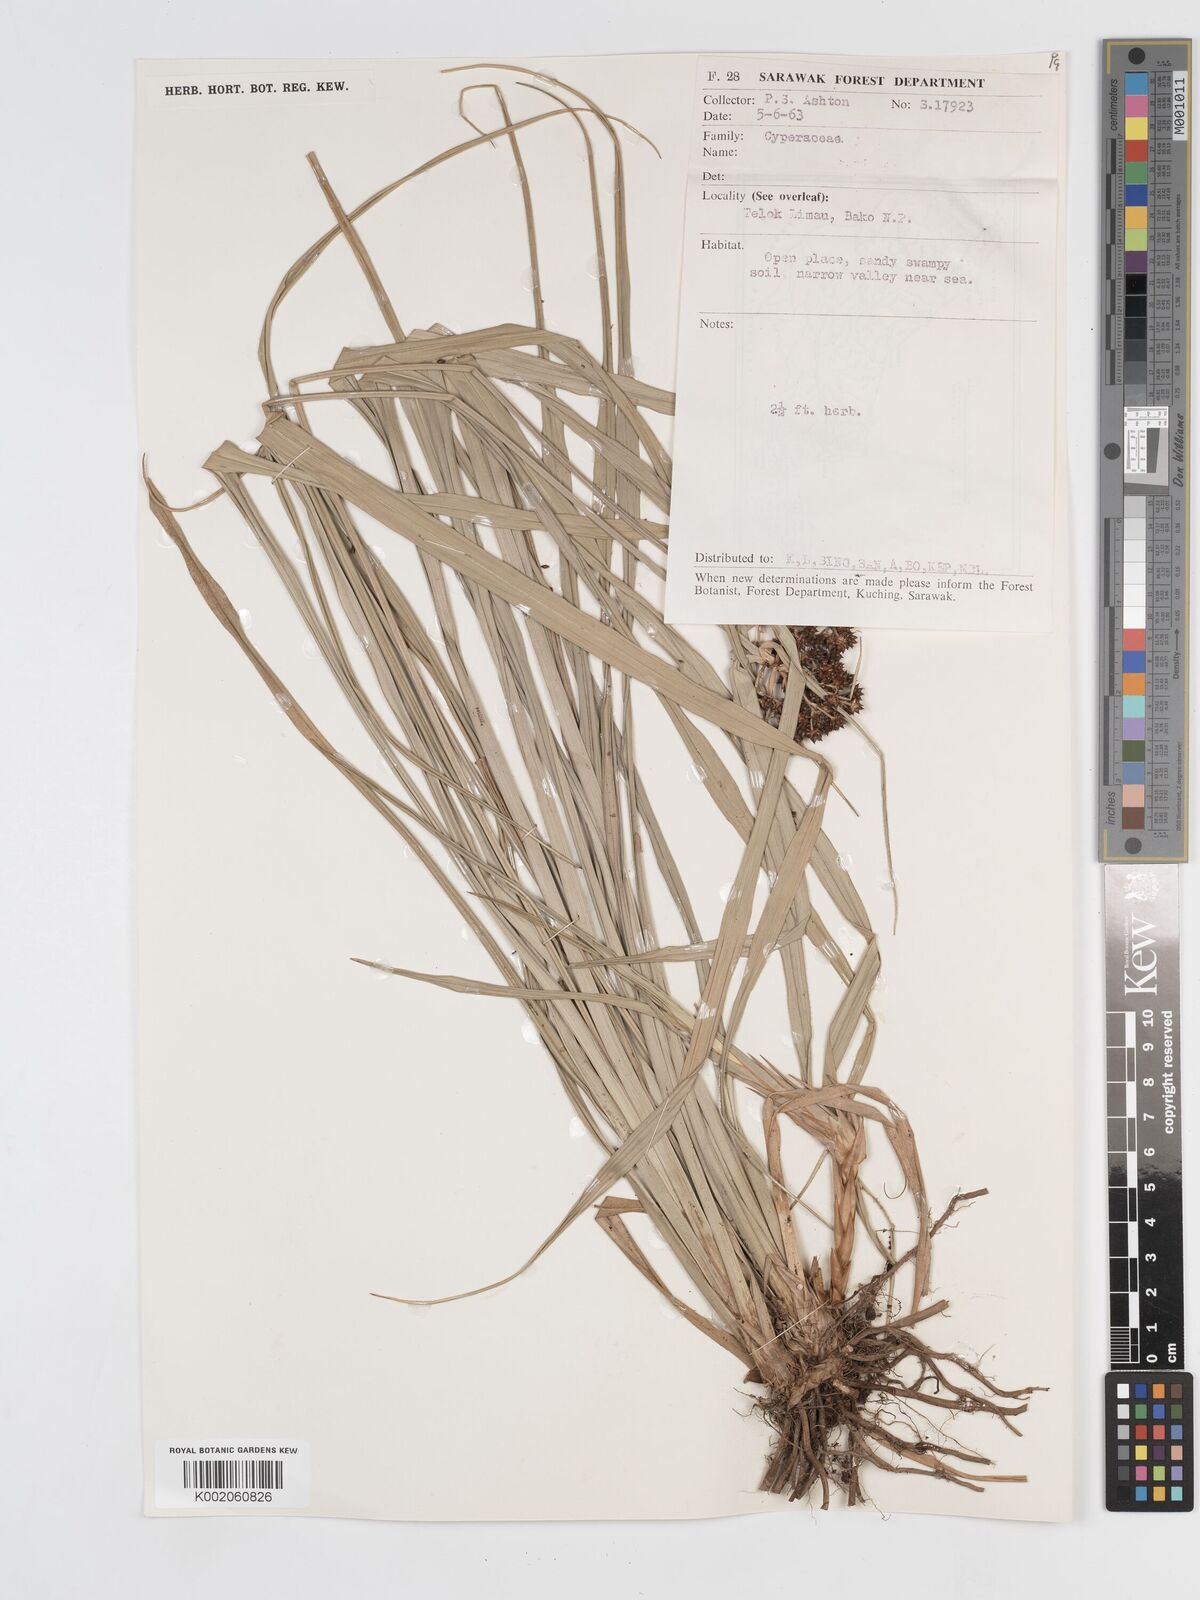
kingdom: Plantae
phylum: Tracheophyta
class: Liliopsida
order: Poales
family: Cyperaceae
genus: Hypolytrum
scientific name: Hypolytrum
